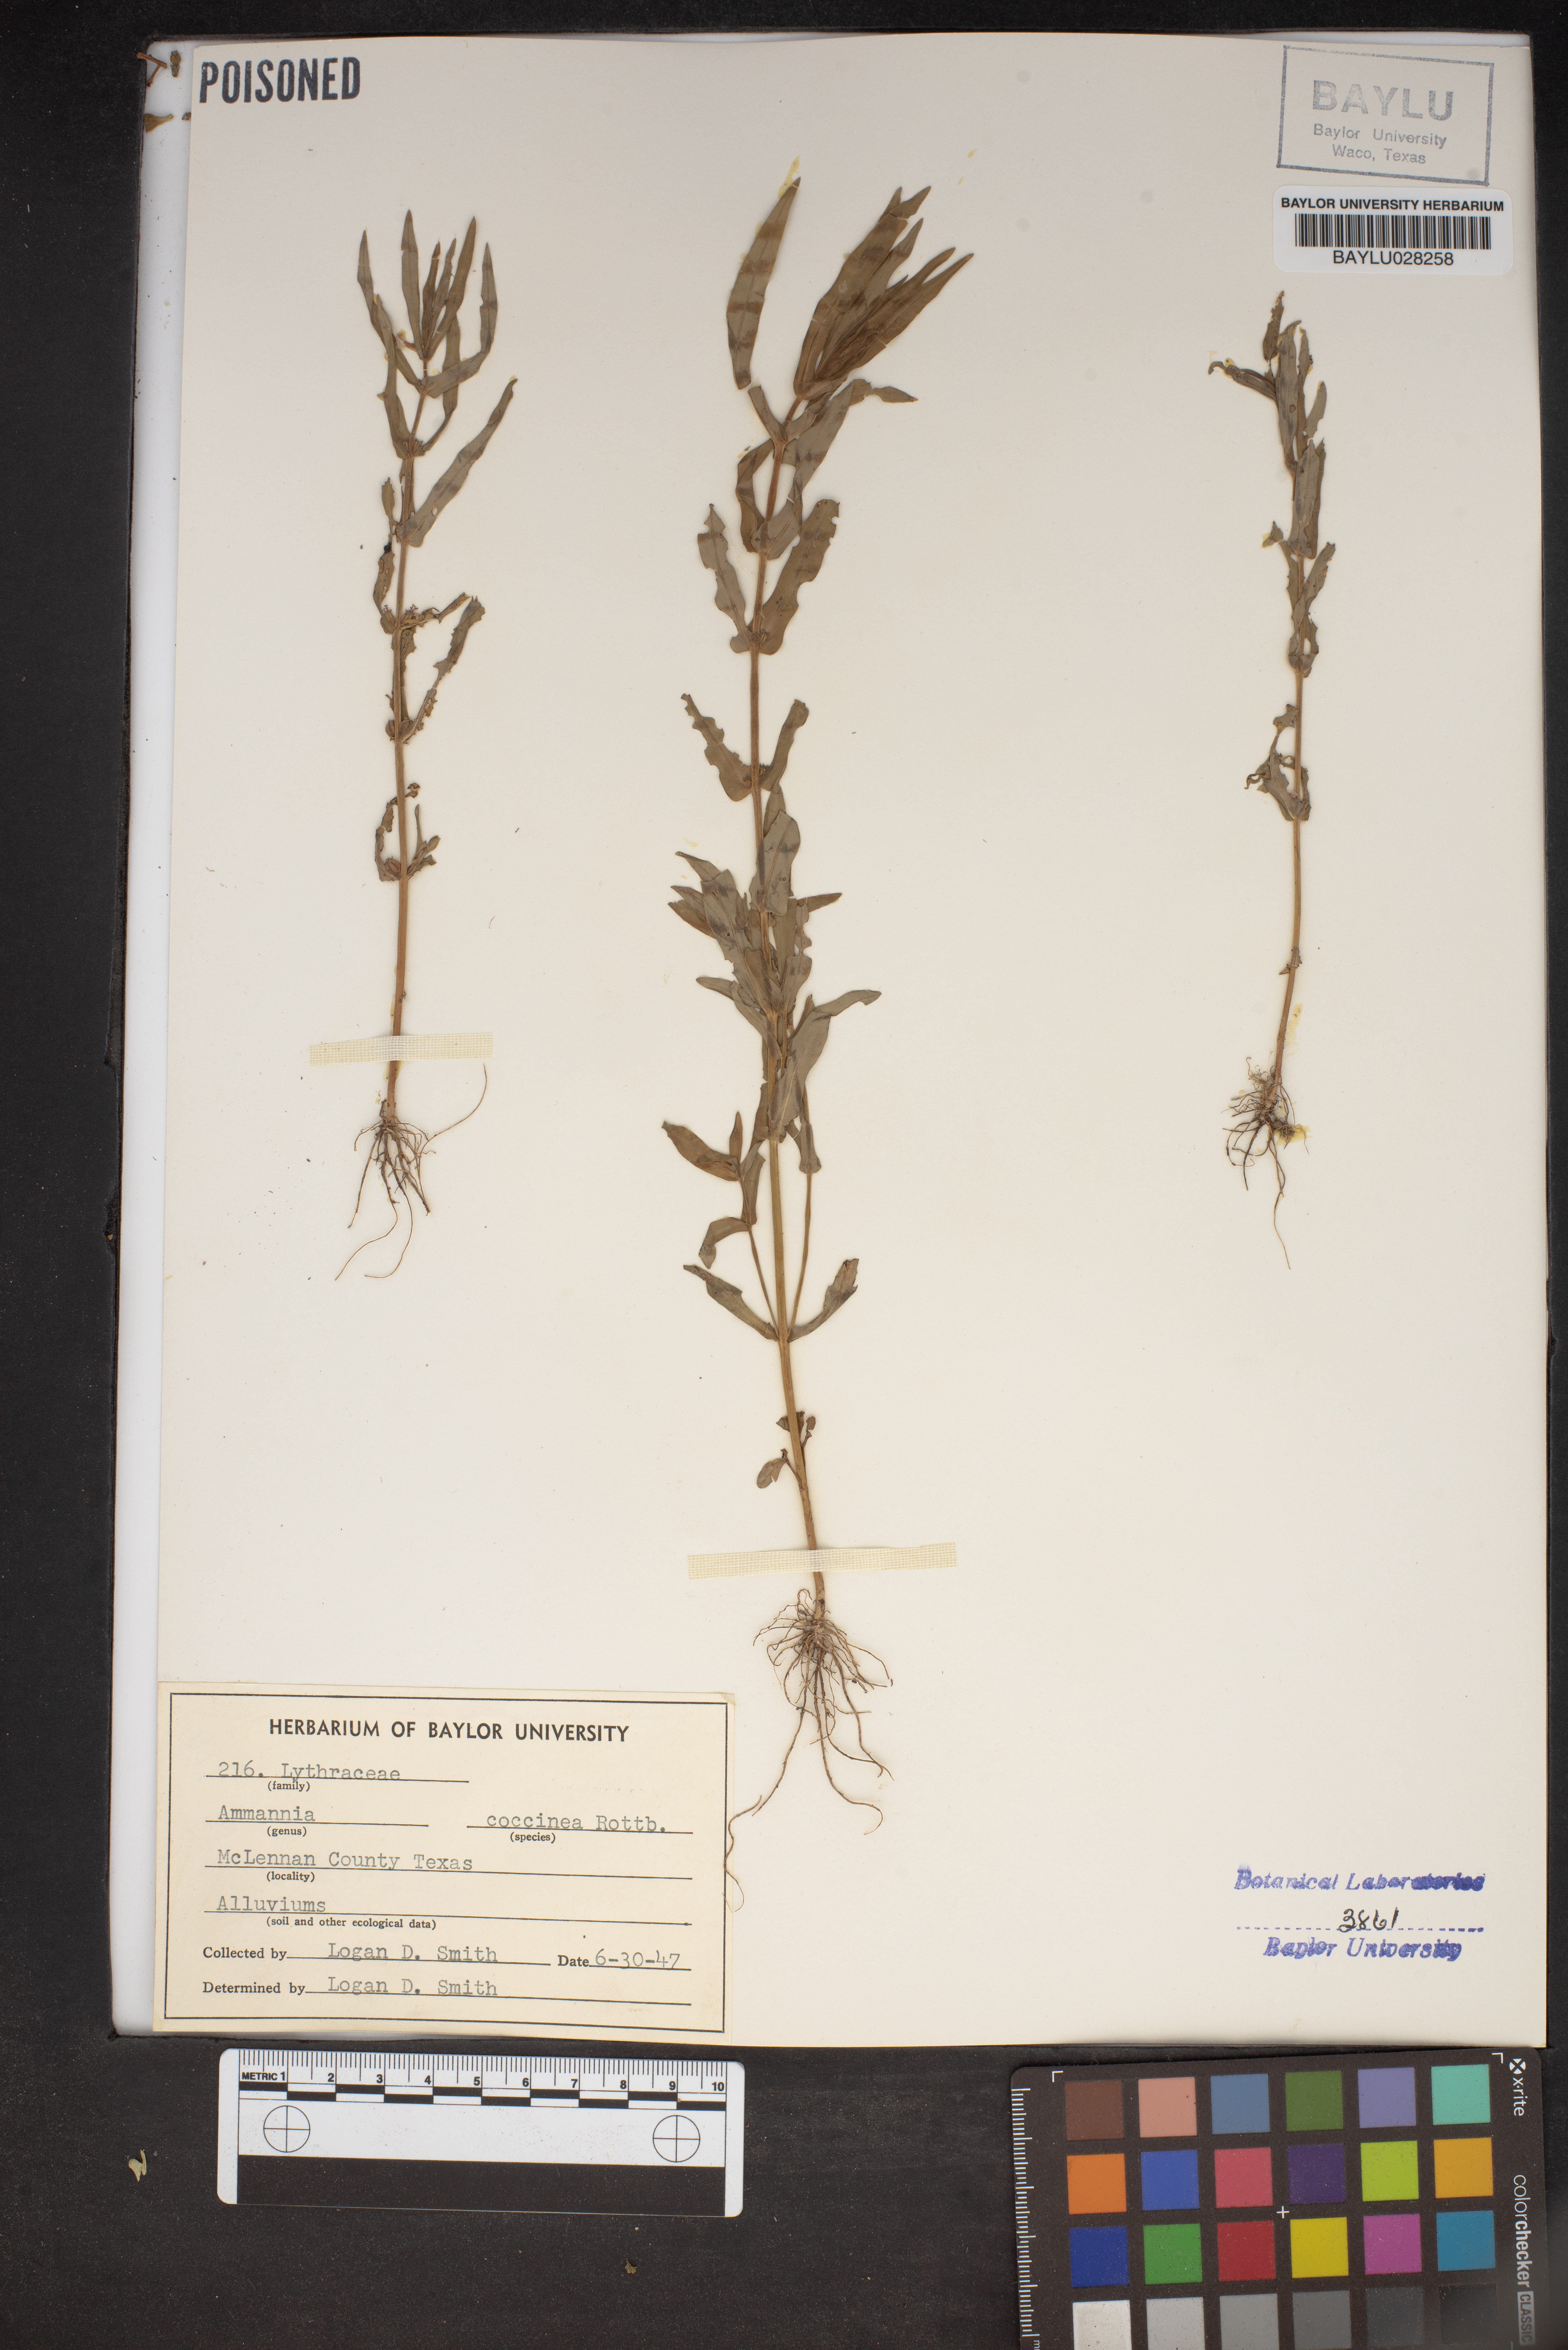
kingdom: Plantae
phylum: Tracheophyta
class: Magnoliopsida
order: Myrtales
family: Lythraceae
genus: Ammannia
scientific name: Ammannia coccinea
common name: Valley redstem
